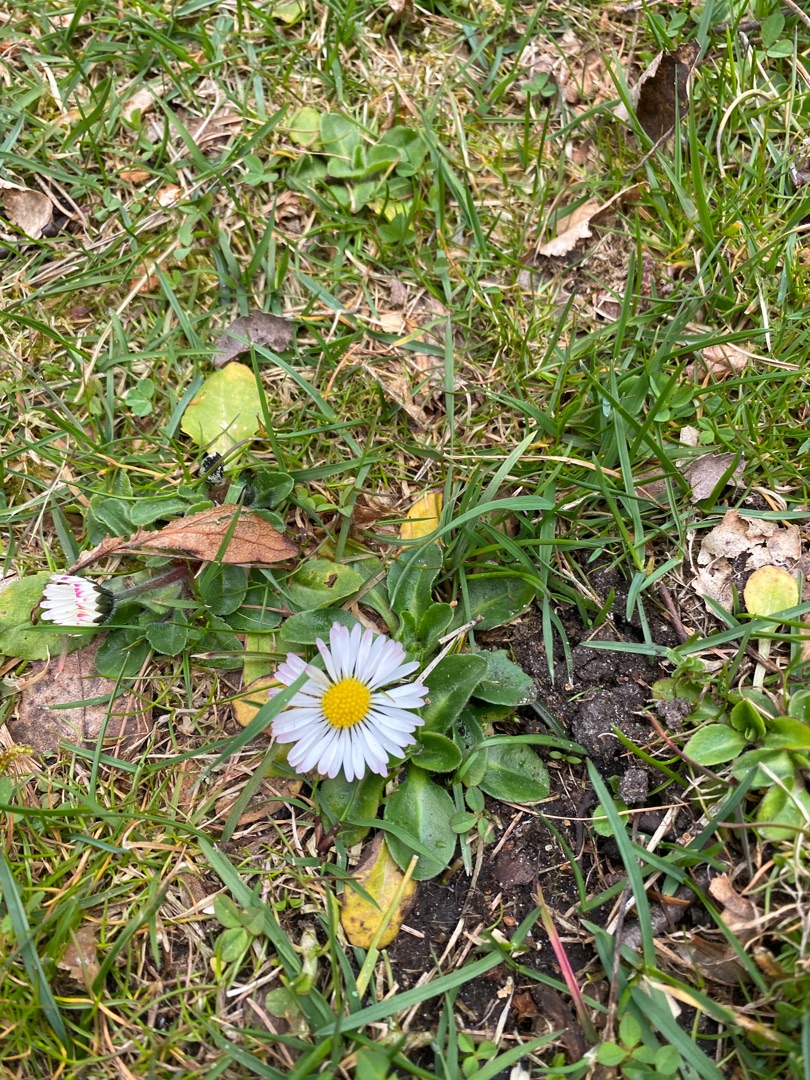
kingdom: Plantae
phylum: Tracheophyta
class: Magnoliopsida
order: Asterales
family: Asteraceae
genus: Bellis
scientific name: Bellis perennis
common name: Tusindfryd
